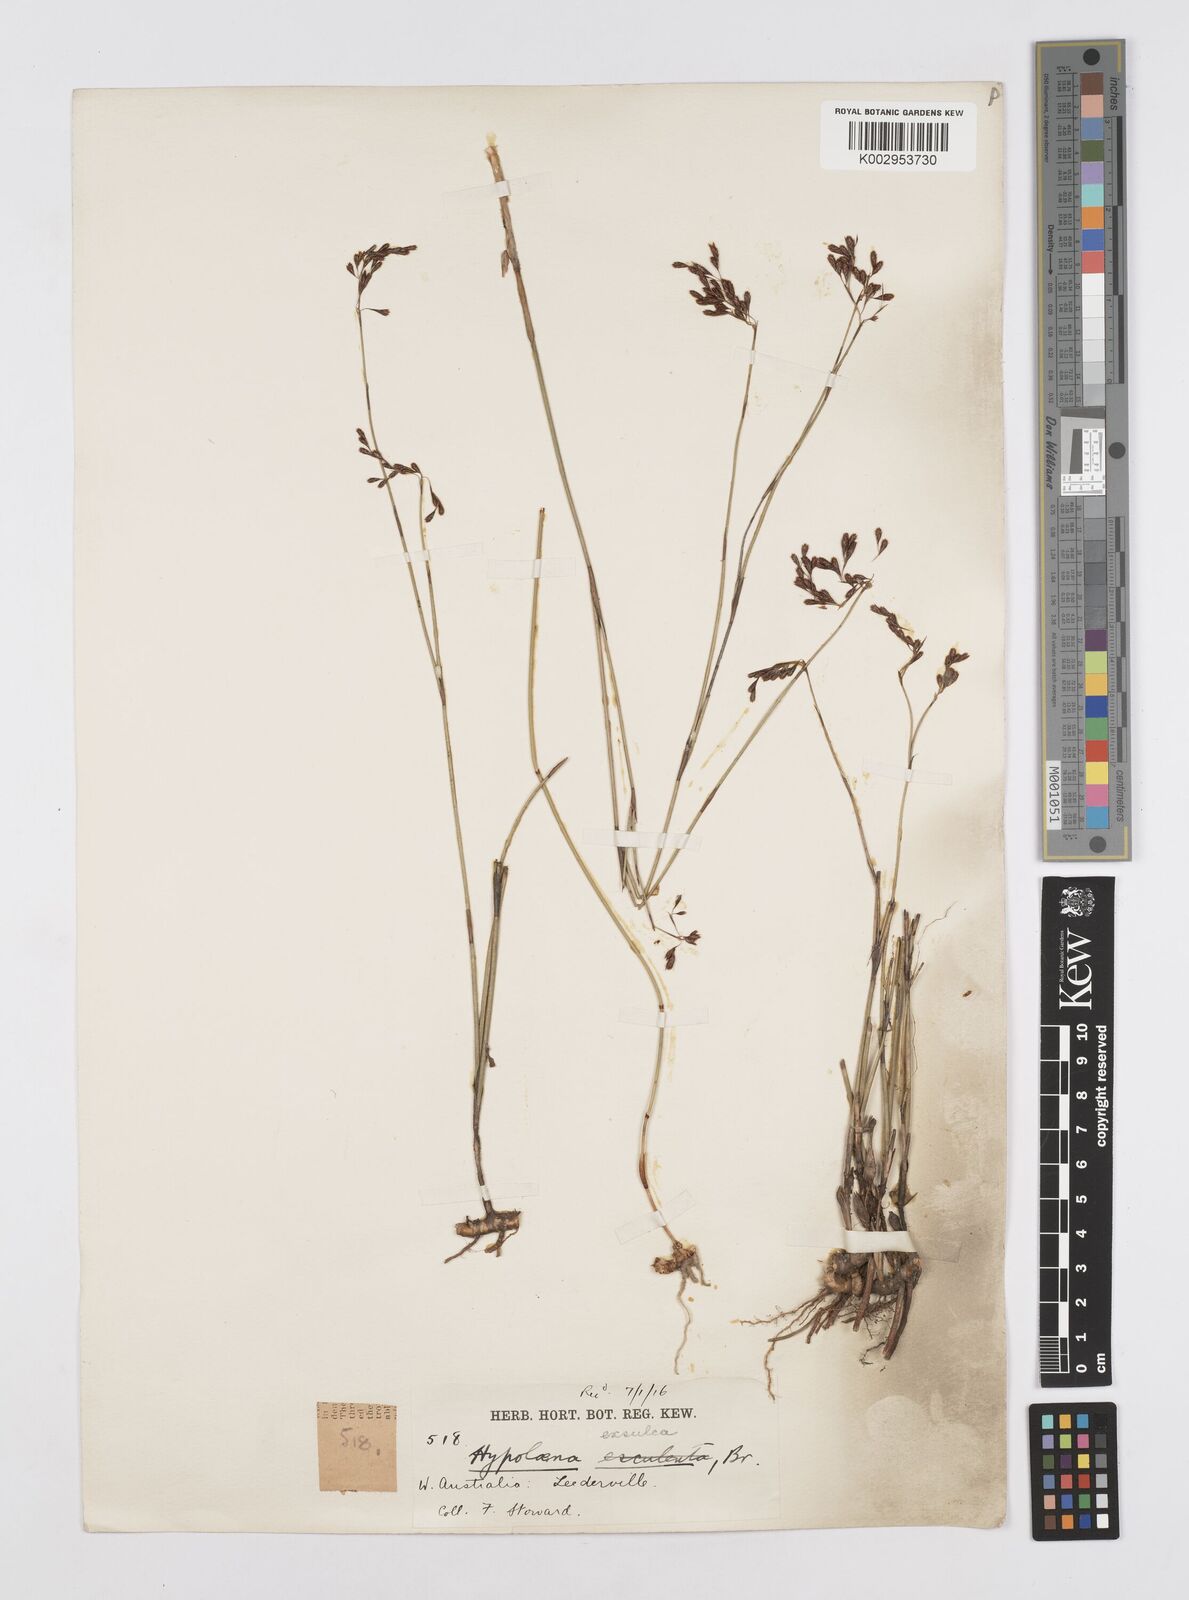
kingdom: Plantae
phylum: Tracheophyta
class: Liliopsida
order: Poales
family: Restionaceae
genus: Hypolaena
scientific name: Hypolaena exsulca
